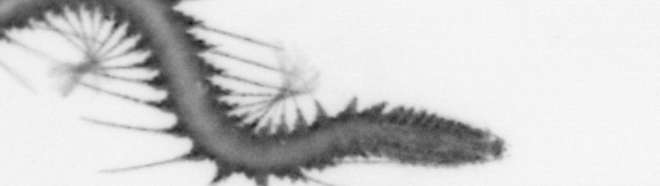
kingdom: Animalia
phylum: Annelida
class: Polychaeta
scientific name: Polychaeta
